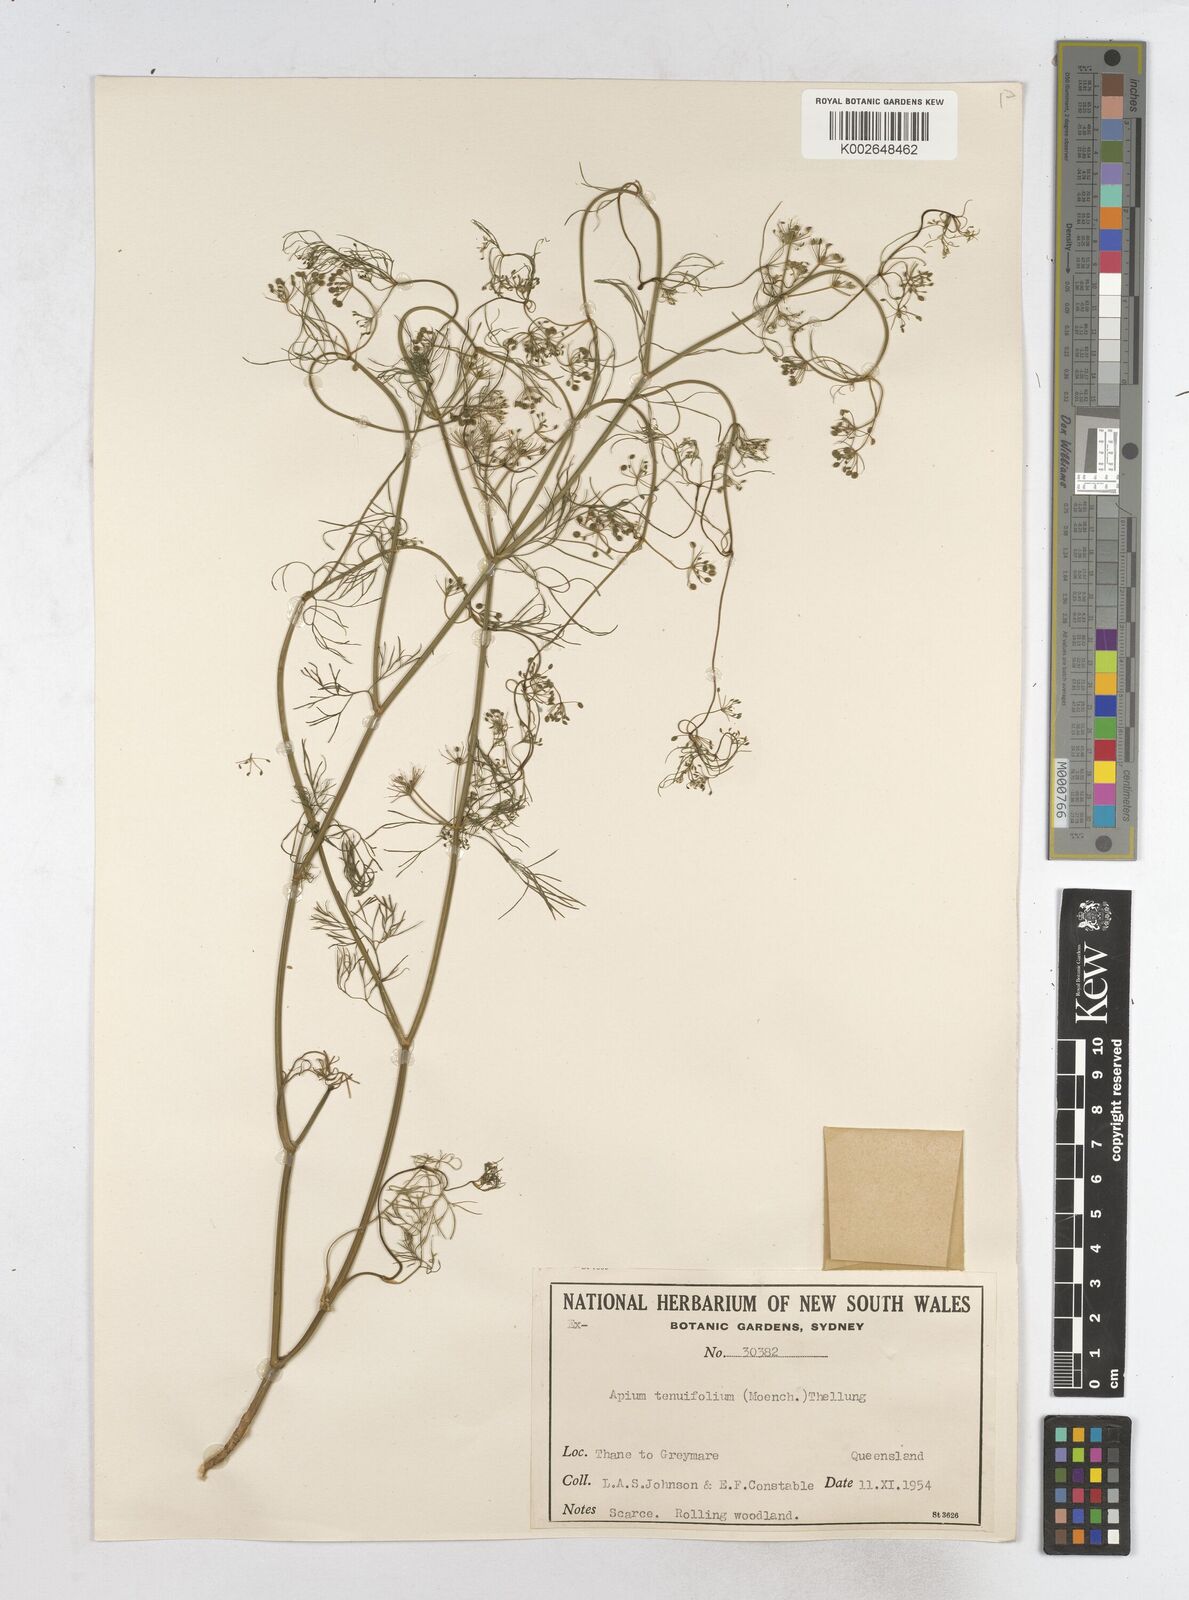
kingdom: Plantae
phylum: Tracheophyta
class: Magnoliopsida
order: Apiales
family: Apiaceae
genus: Cyclospermum
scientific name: Cyclospermum leptophyllum
